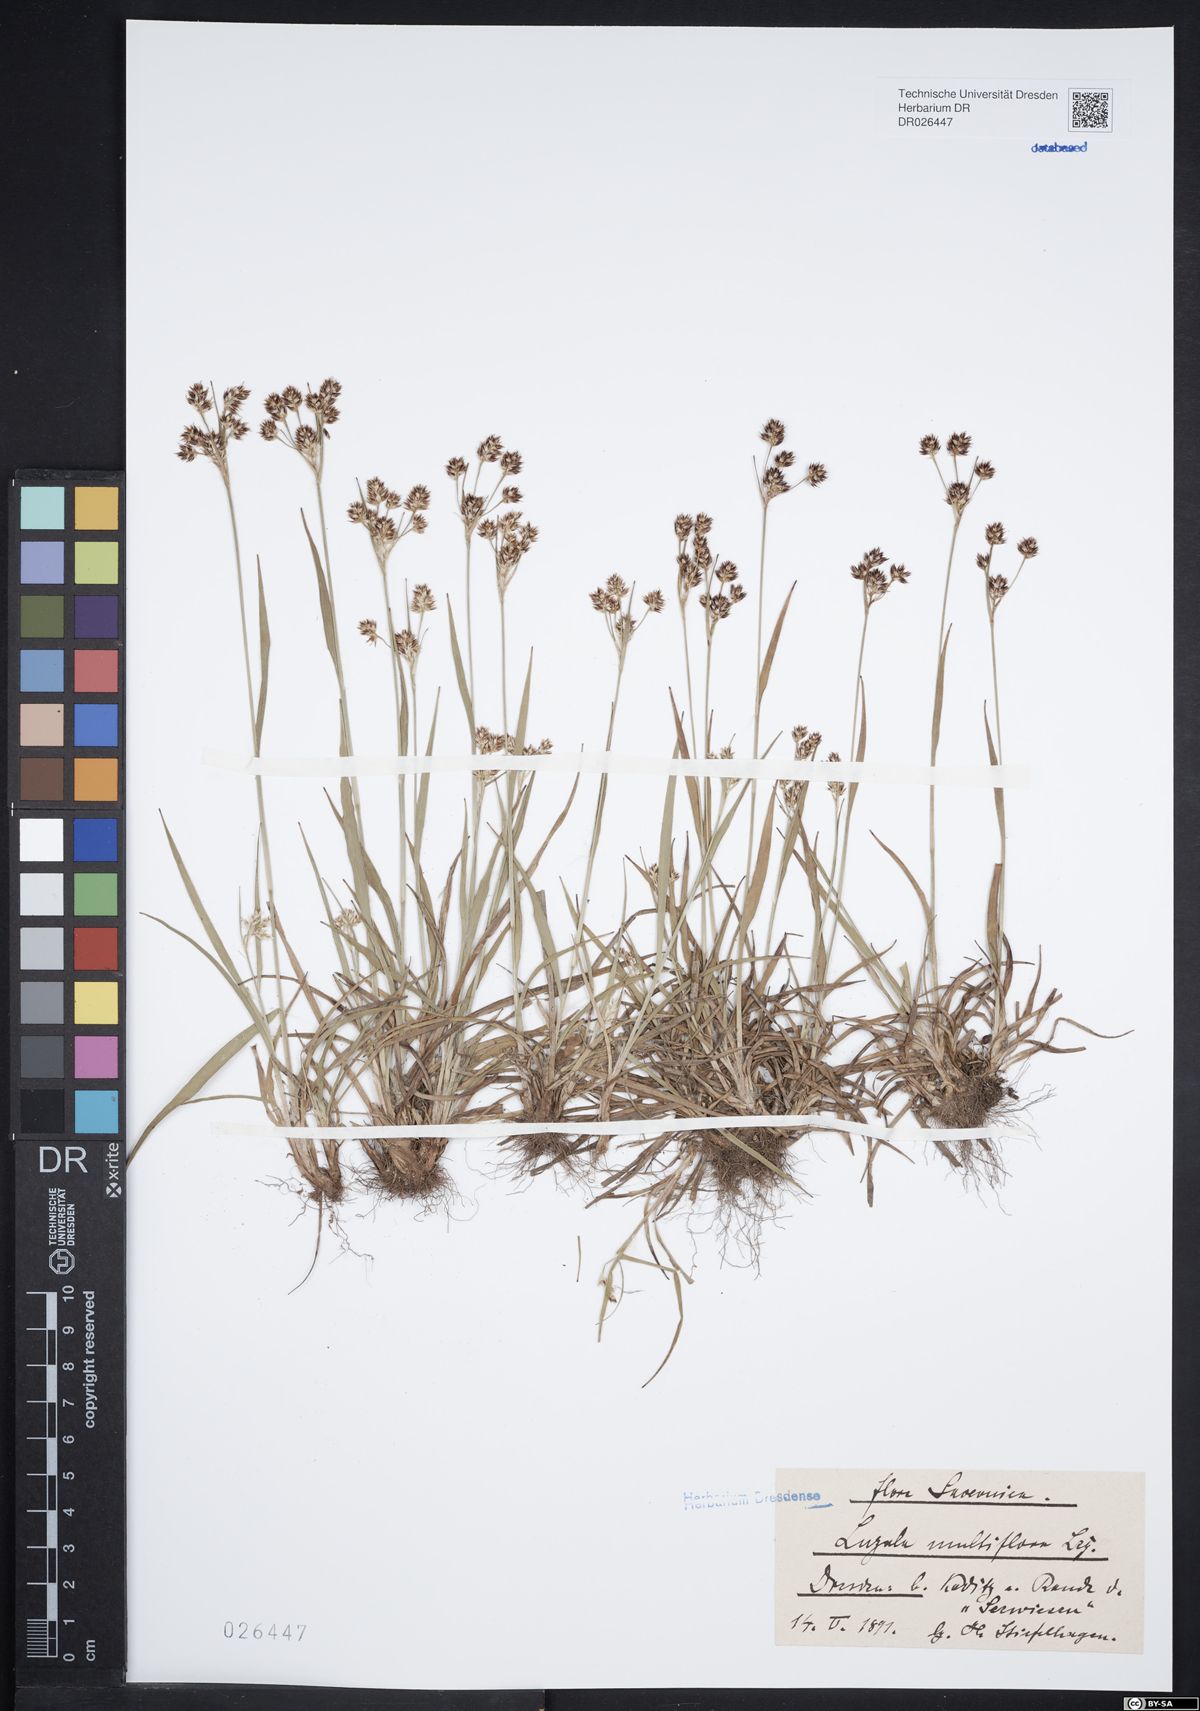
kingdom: Plantae
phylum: Tracheophyta
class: Liliopsida
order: Poales
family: Juncaceae
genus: Luzula
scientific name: Luzula multiflora
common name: Heath wood-rush
